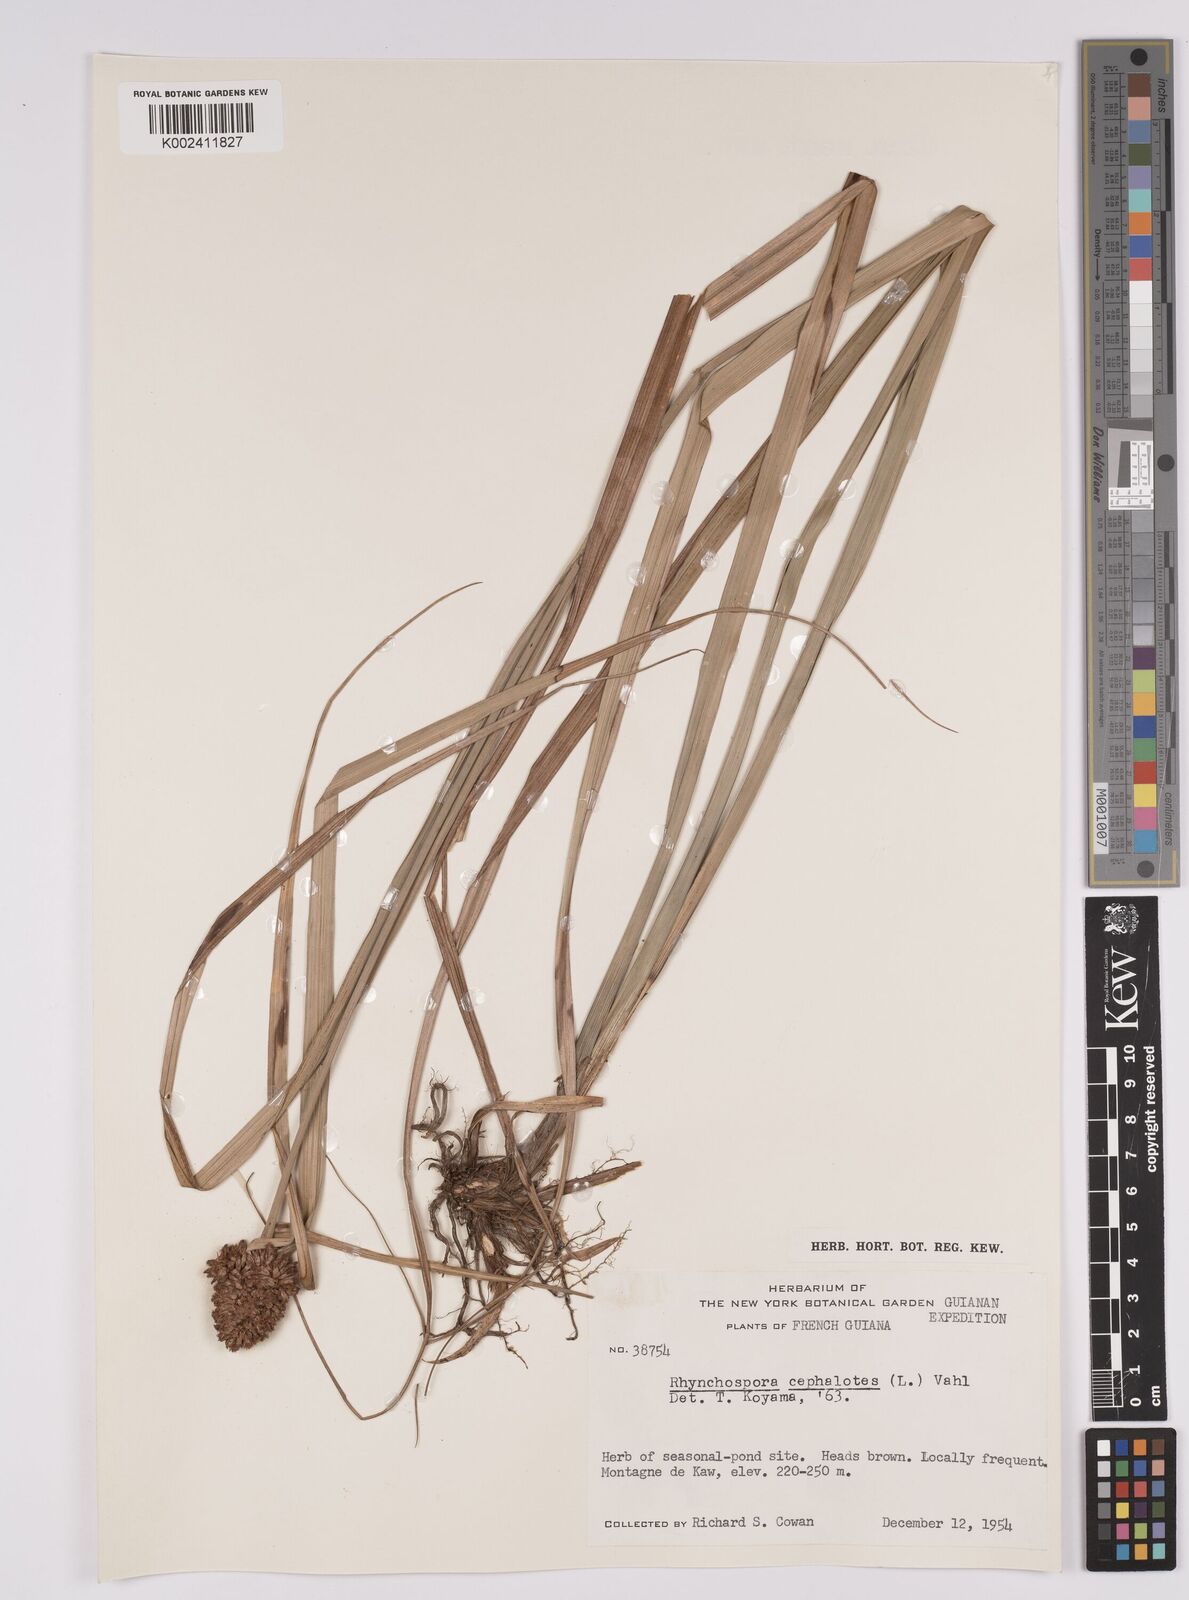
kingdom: Plantae
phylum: Tracheophyta
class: Liliopsida
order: Poales
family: Cyperaceae
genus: Rhynchospora
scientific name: Rhynchospora cephalotes
